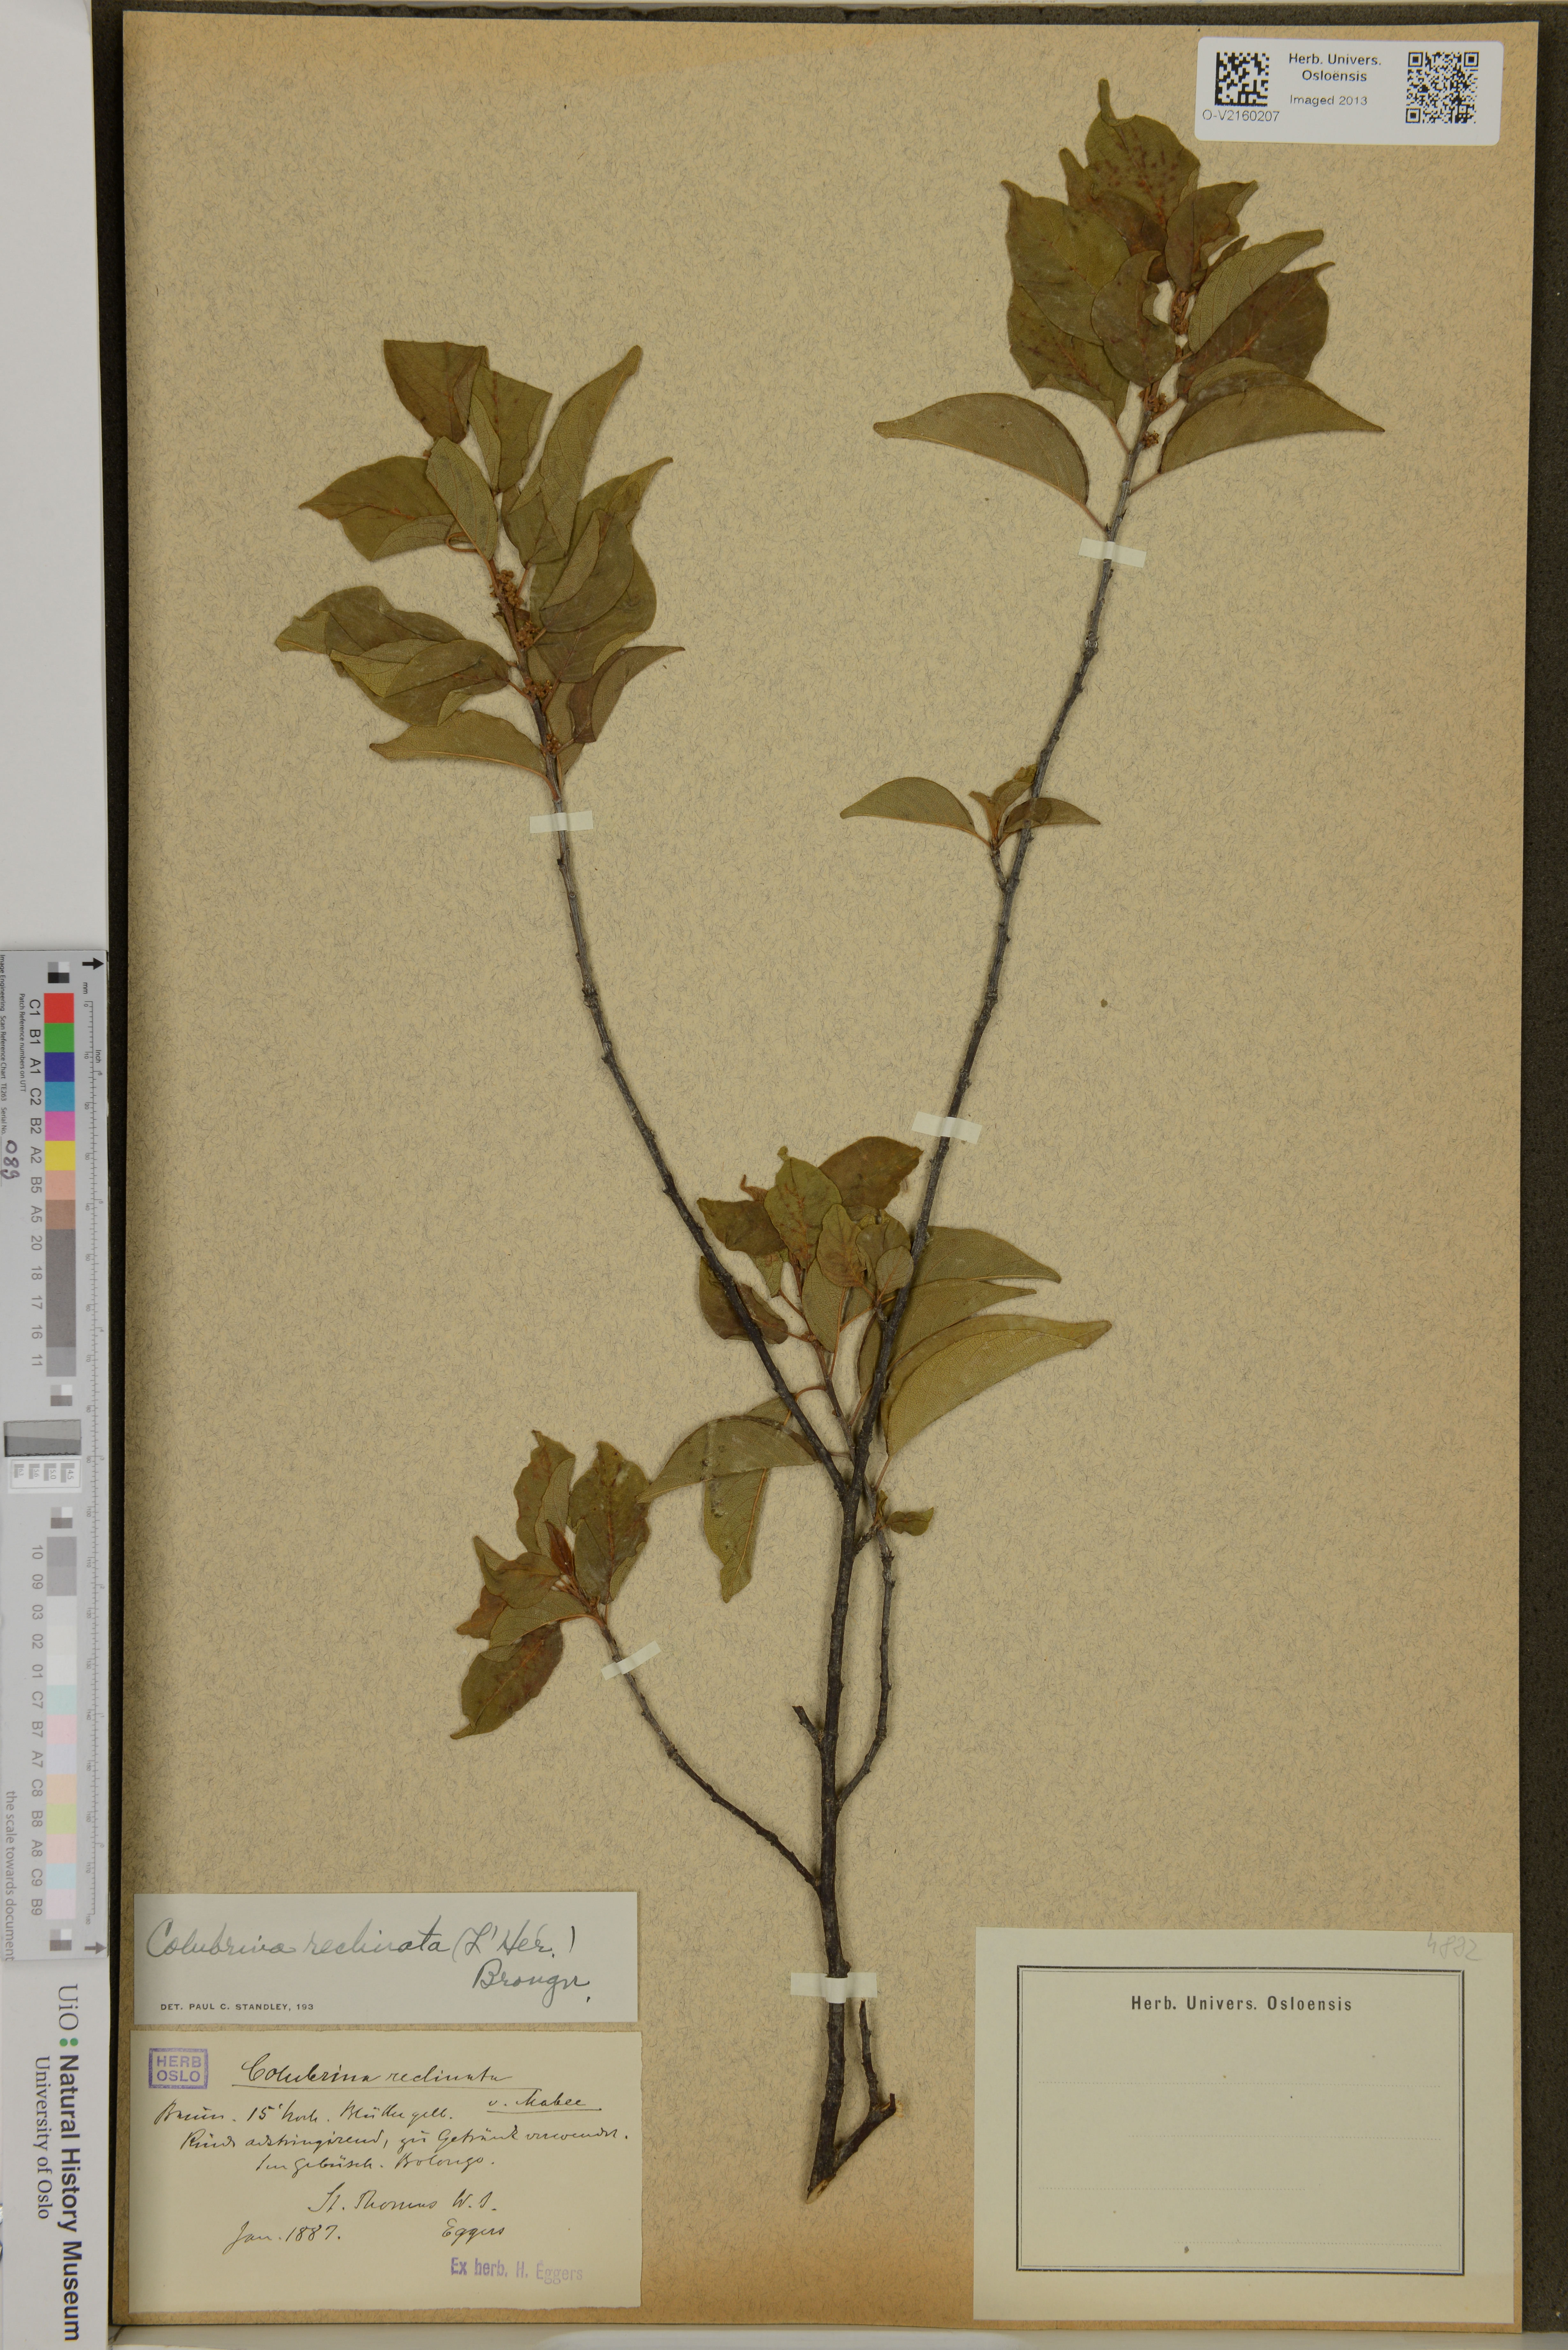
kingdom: Plantae
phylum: Tracheophyta
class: Magnoliopsida
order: Rosales
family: Rhamnaceae
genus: Colubrina
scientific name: Colubrina elliptica
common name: Soldierwood
